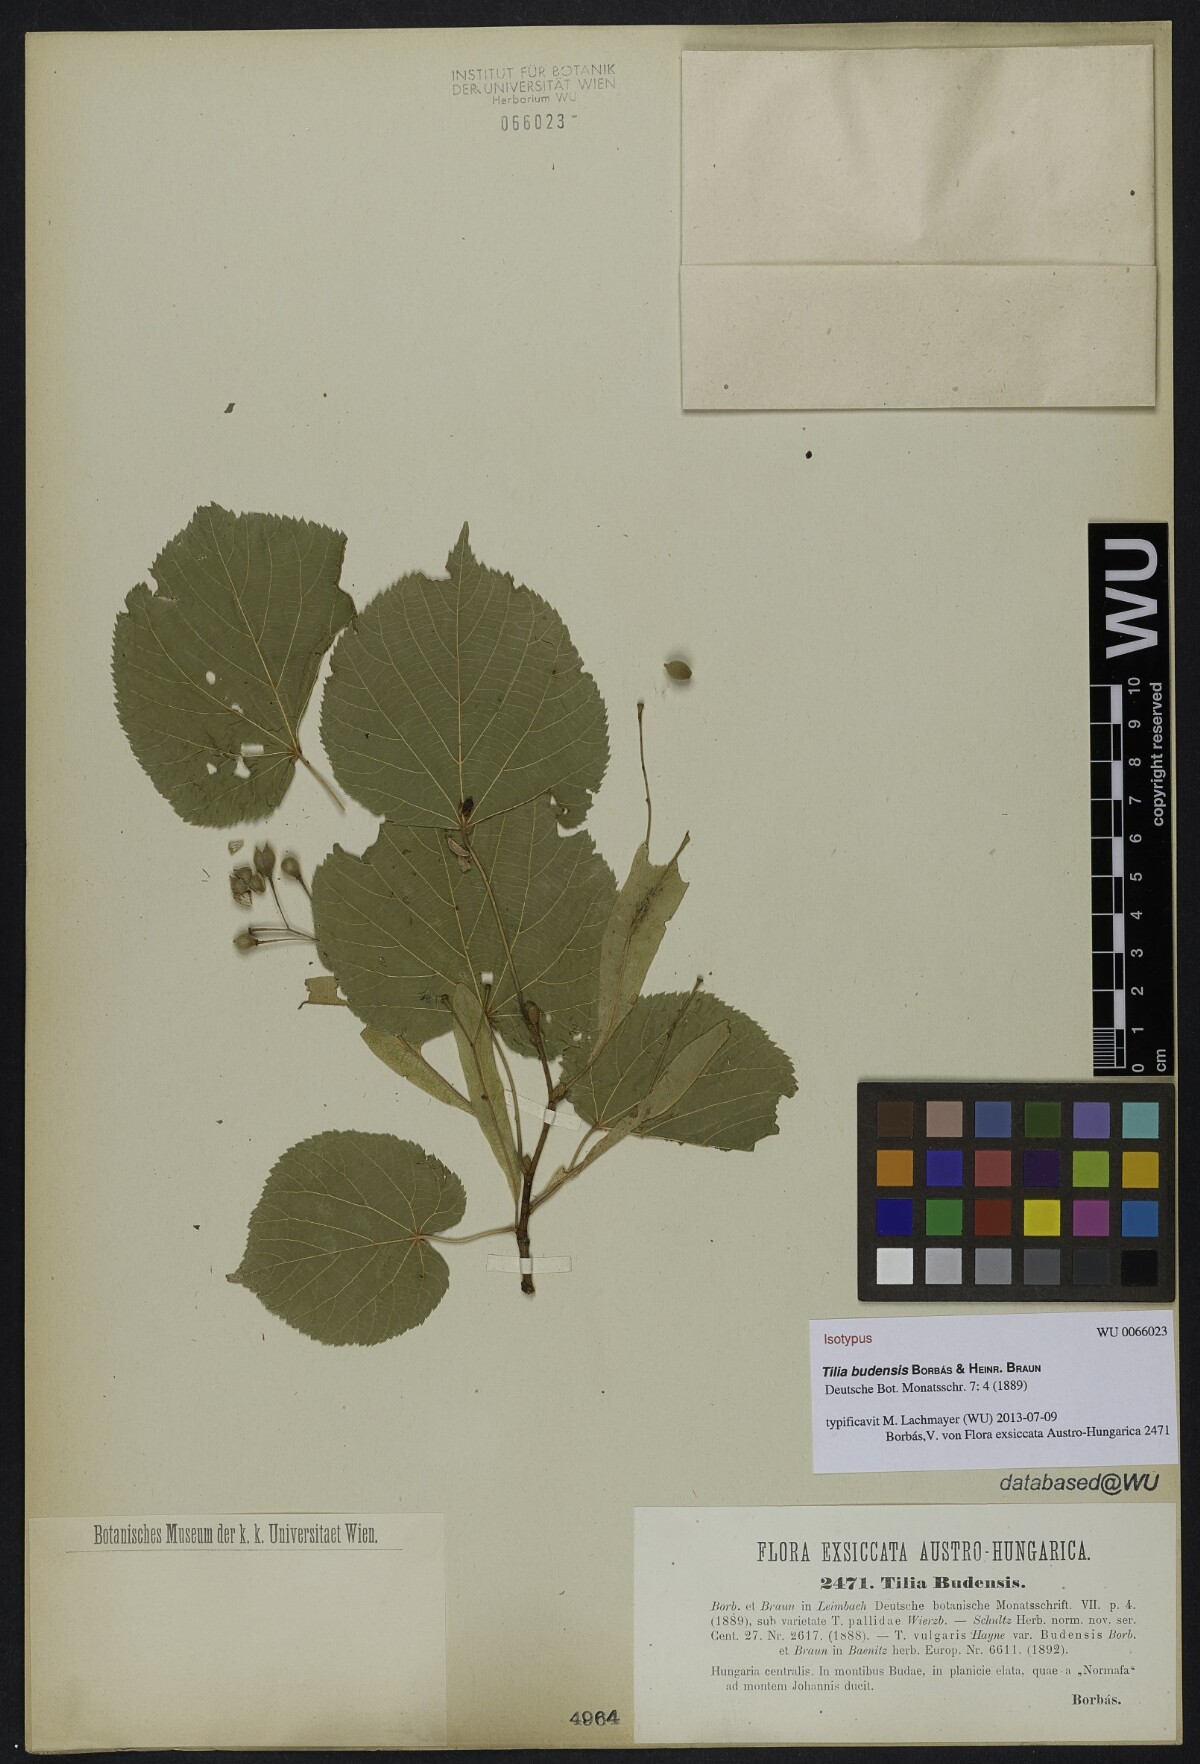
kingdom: Plantae
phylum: Tracheophyta
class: Magnoliopsida
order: Malvales
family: Malvaceae
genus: Tilia
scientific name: Tilia budensis
